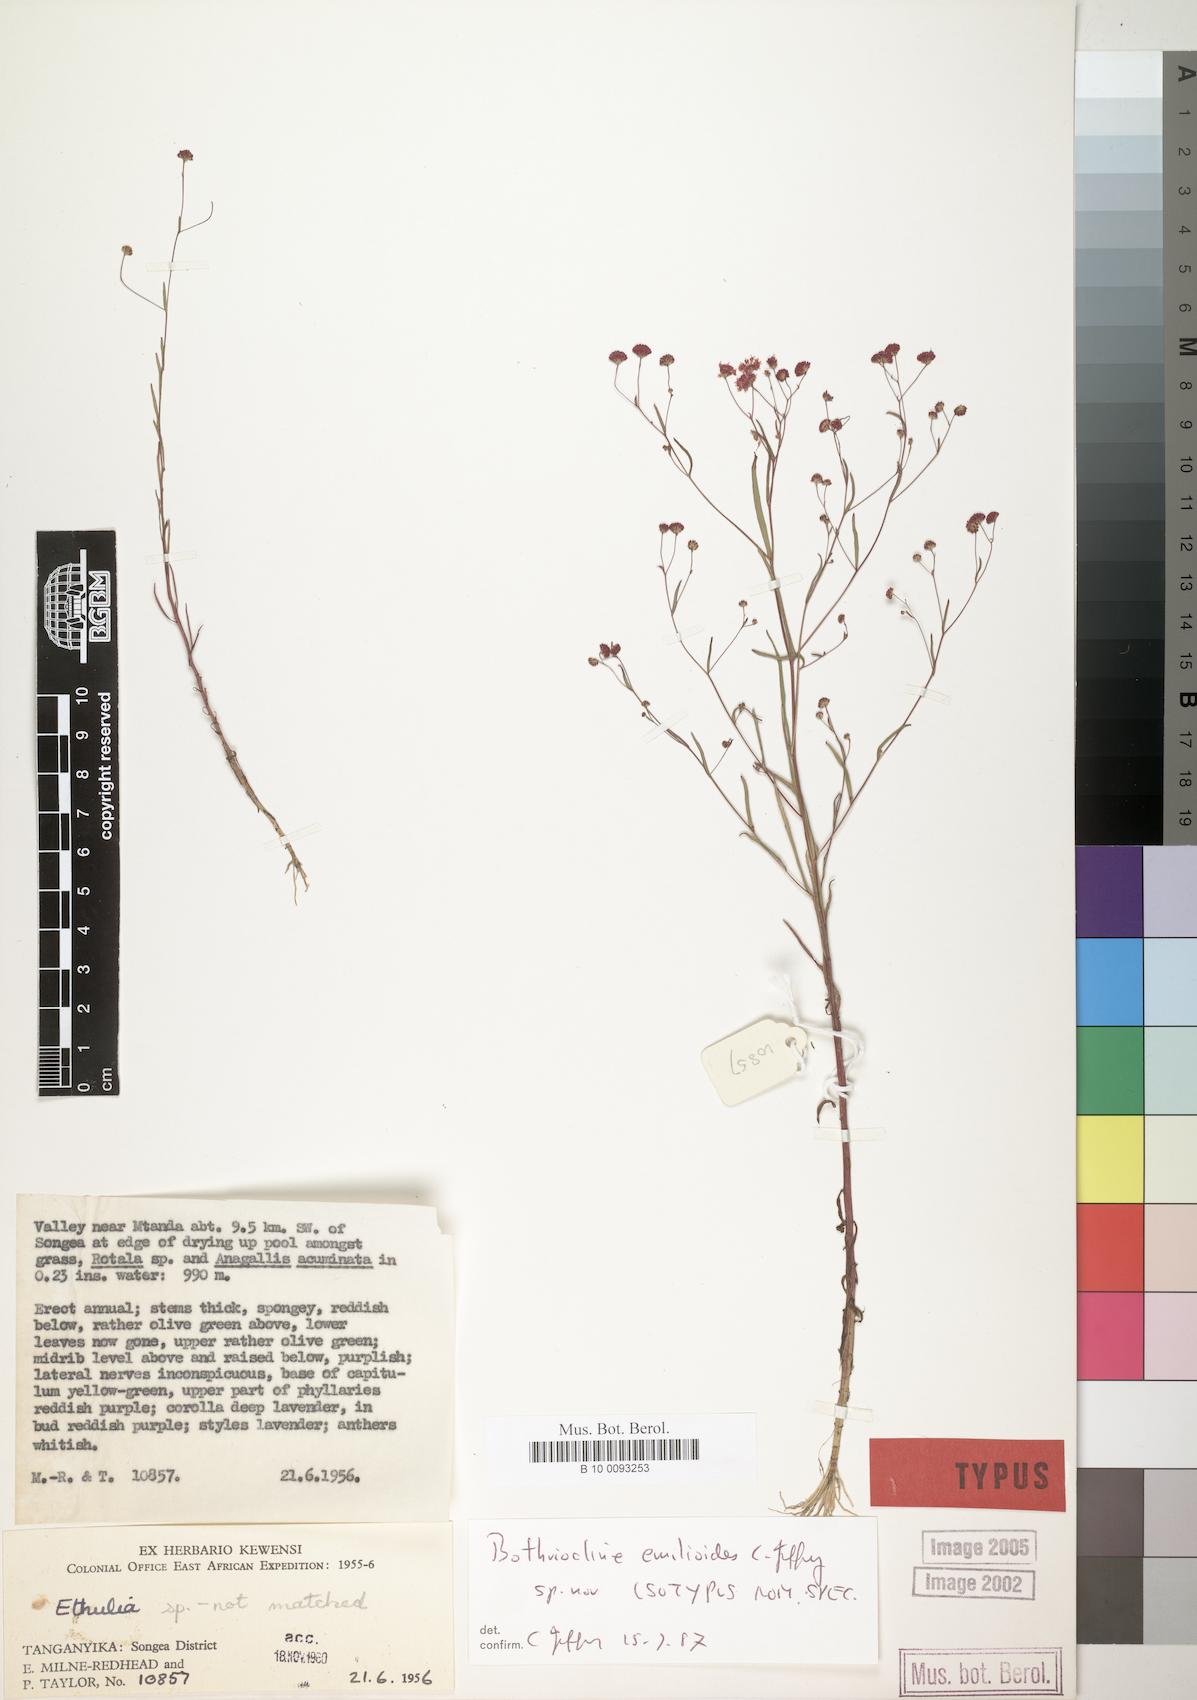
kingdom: Plantae
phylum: Tracheophyta
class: Magnoliopsida
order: Asterales
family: Asteraceae
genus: Bothriocline
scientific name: Bothriocline emilioides
